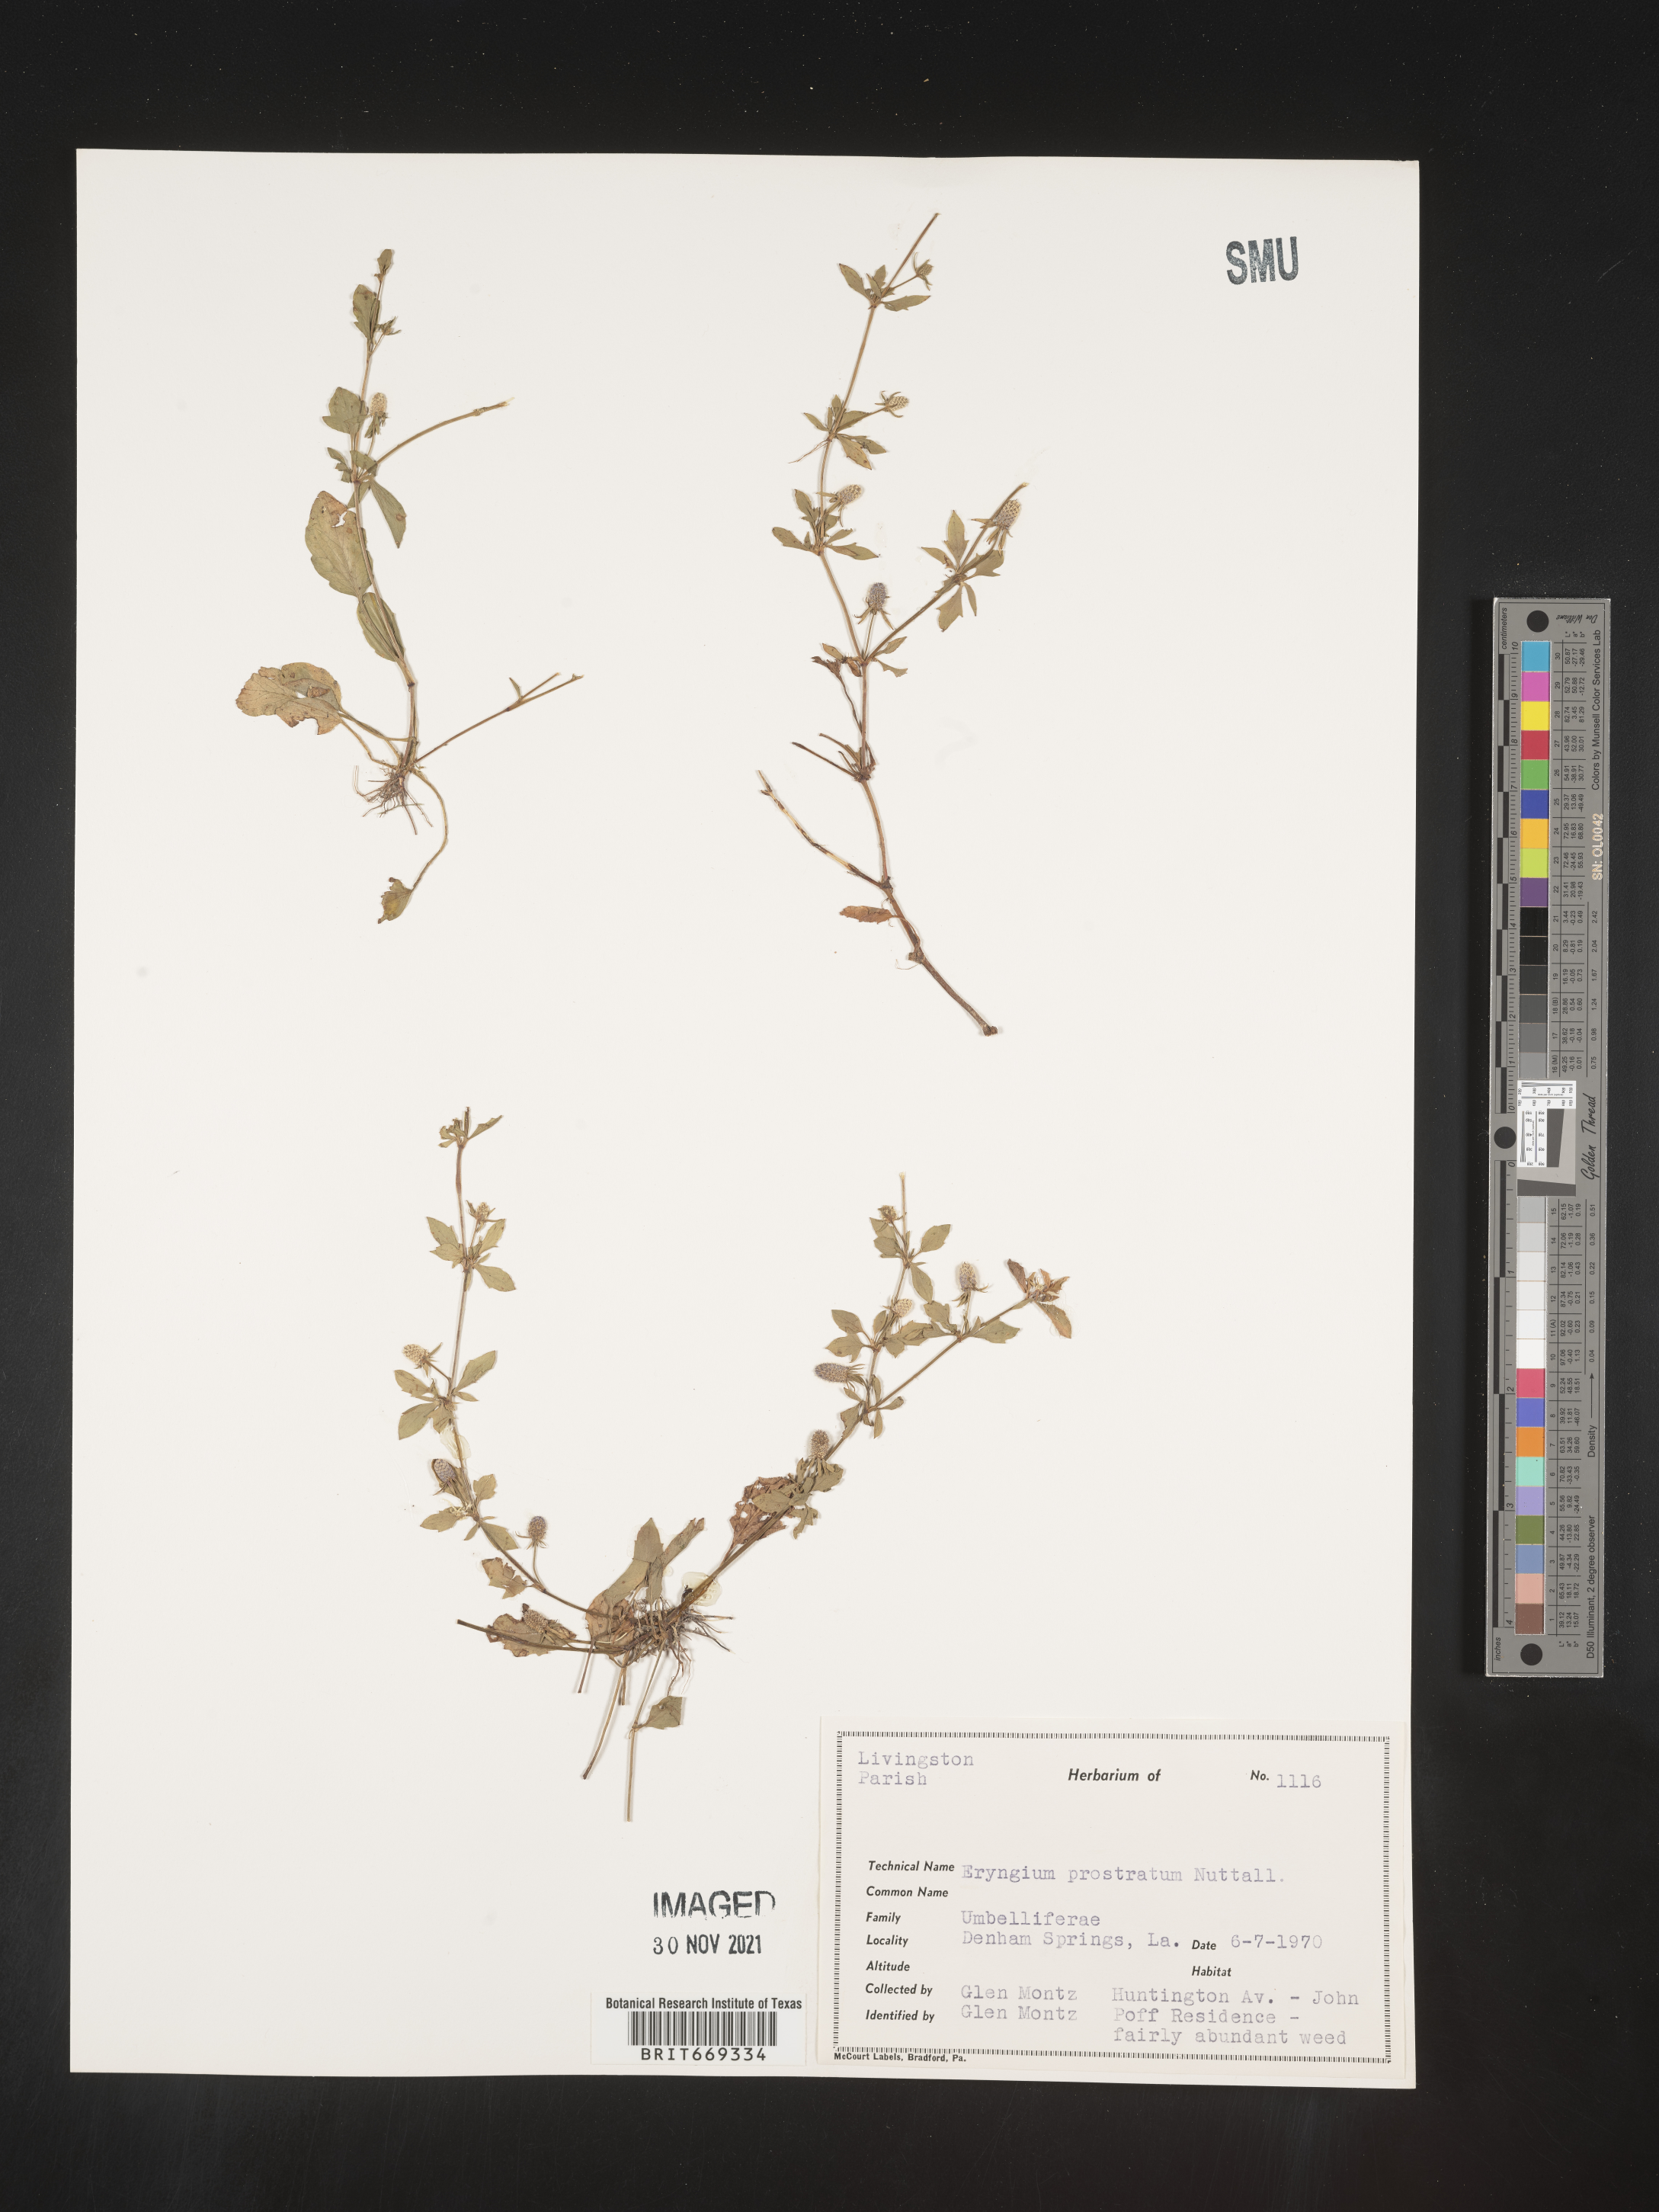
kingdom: Plantae
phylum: Tracheophyta
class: Magnoliopsida
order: Apiales
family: Apiaceae
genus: Eryngium
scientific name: Eryngium prostratum
